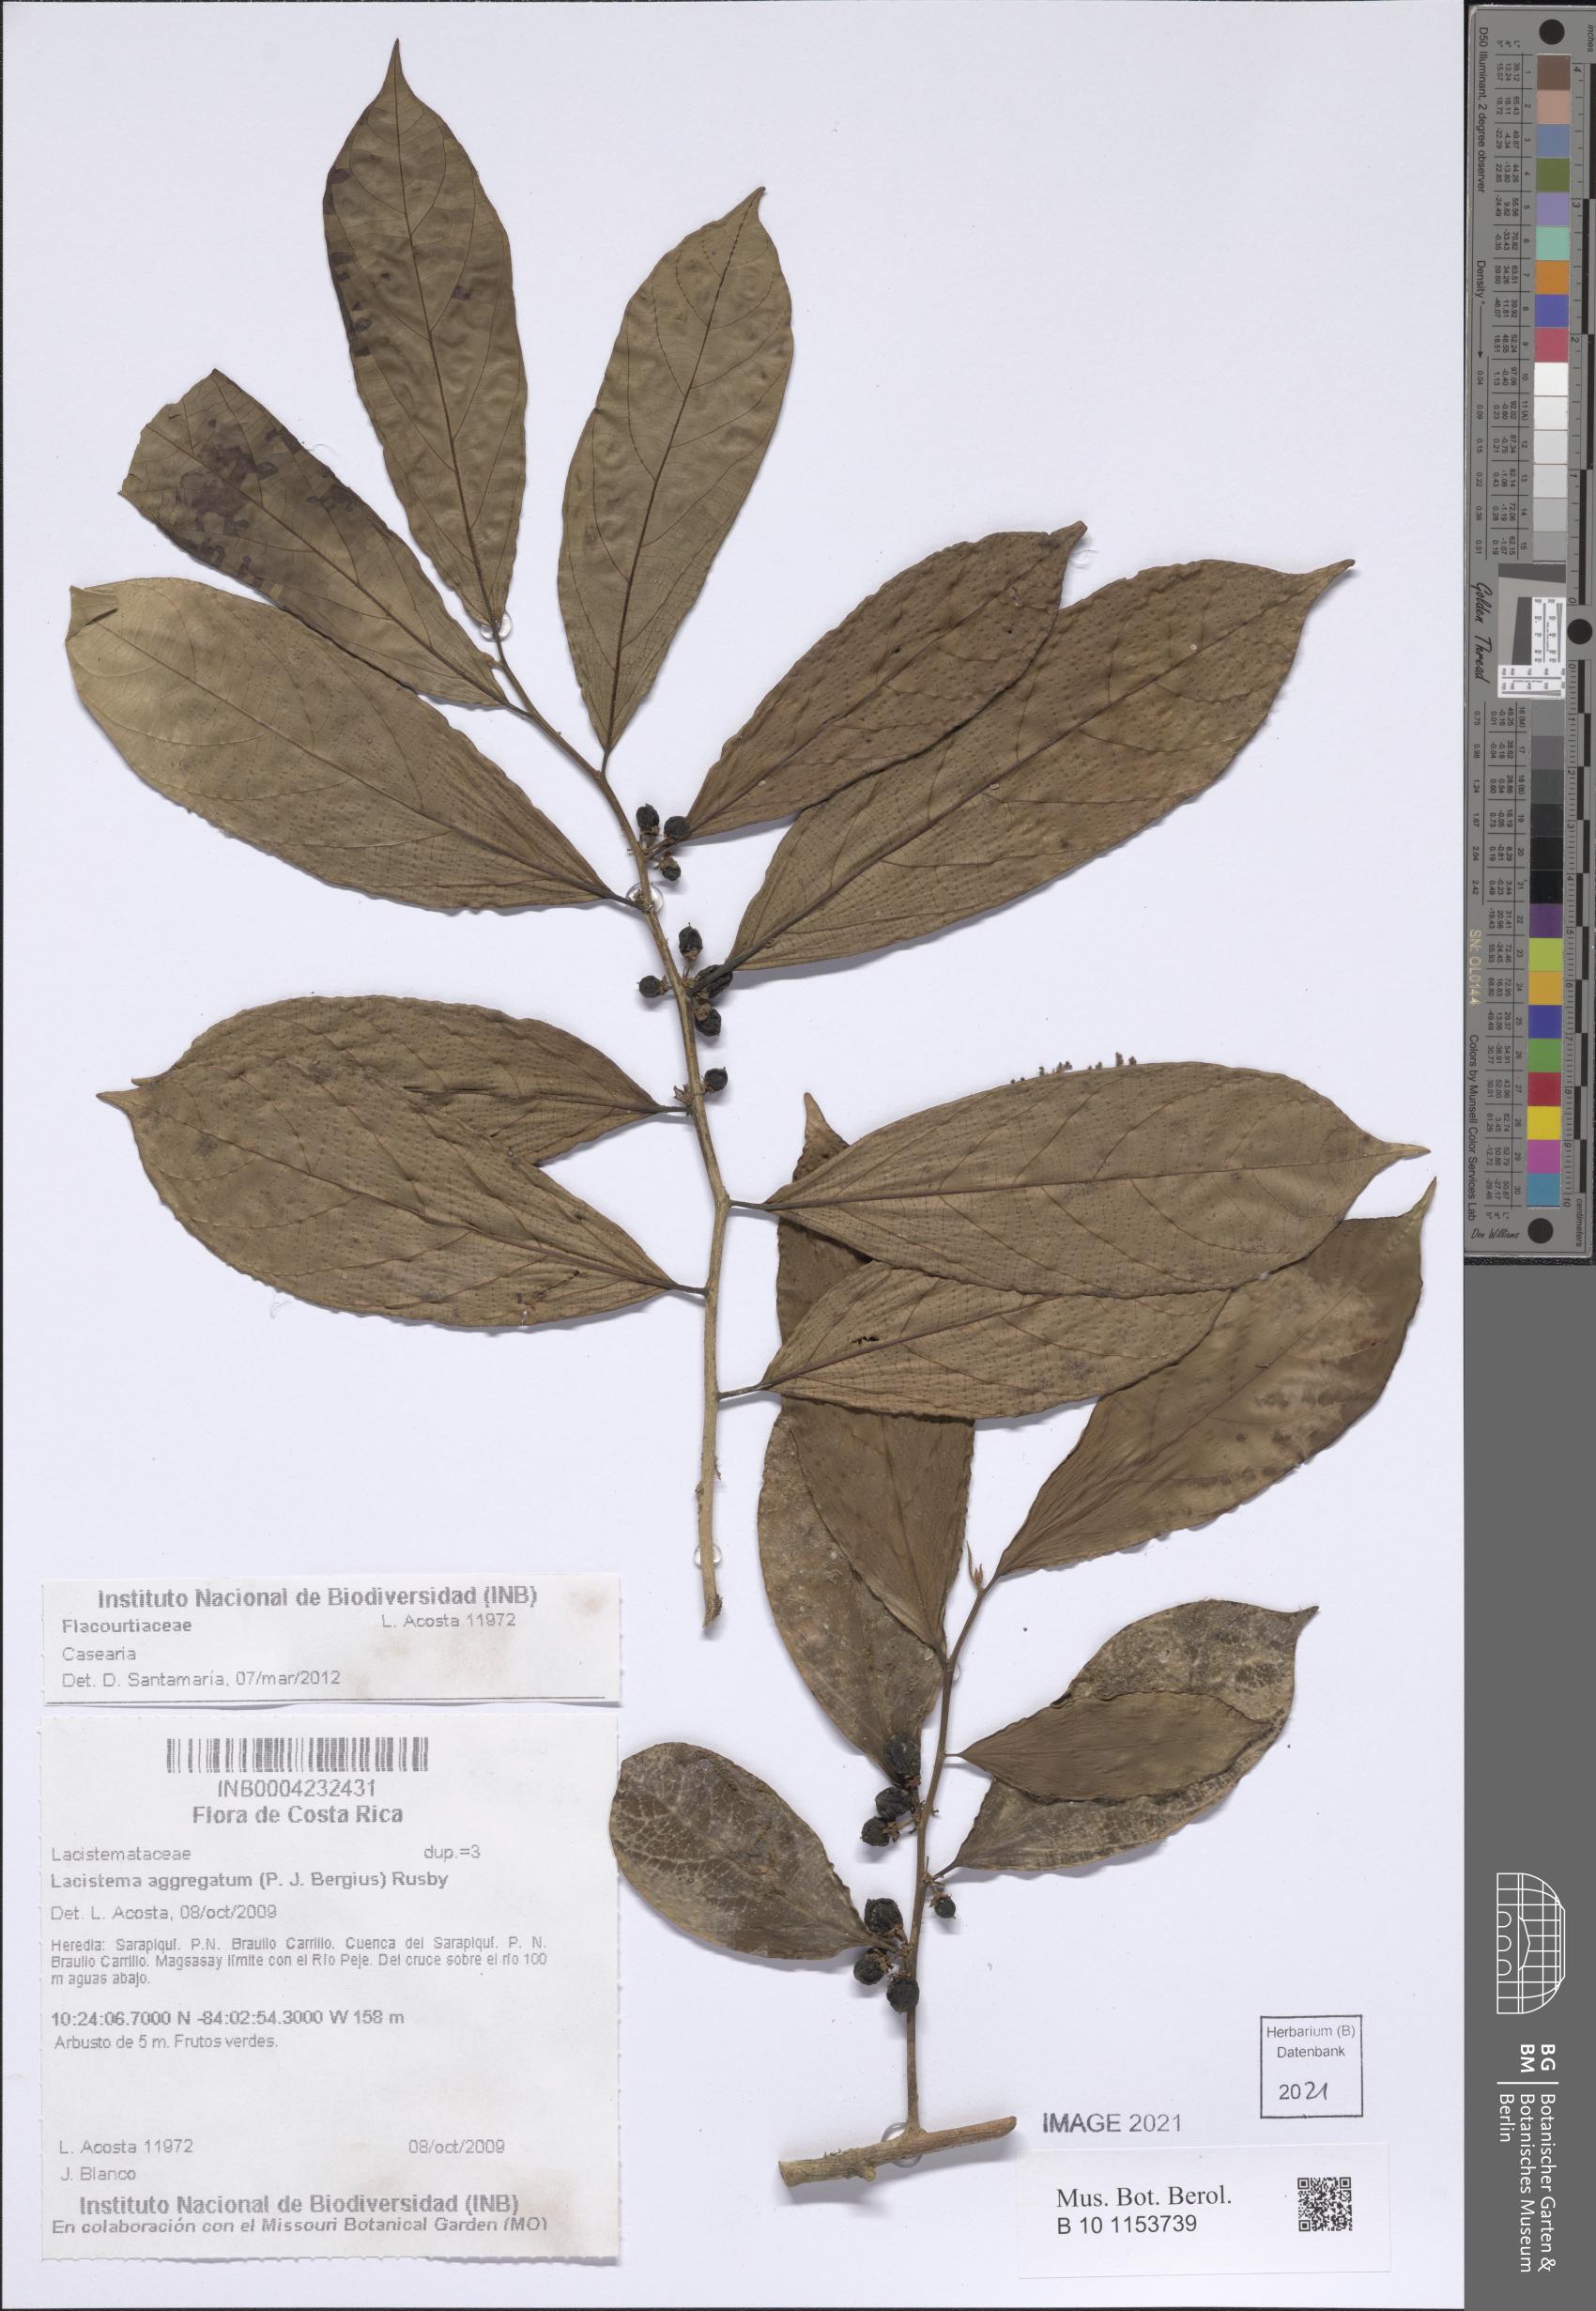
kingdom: Plantae
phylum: Tracheophyta
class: Magnoliopsida
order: Malpighiales
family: Salicaceae
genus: Casearia
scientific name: Casearia coronata
